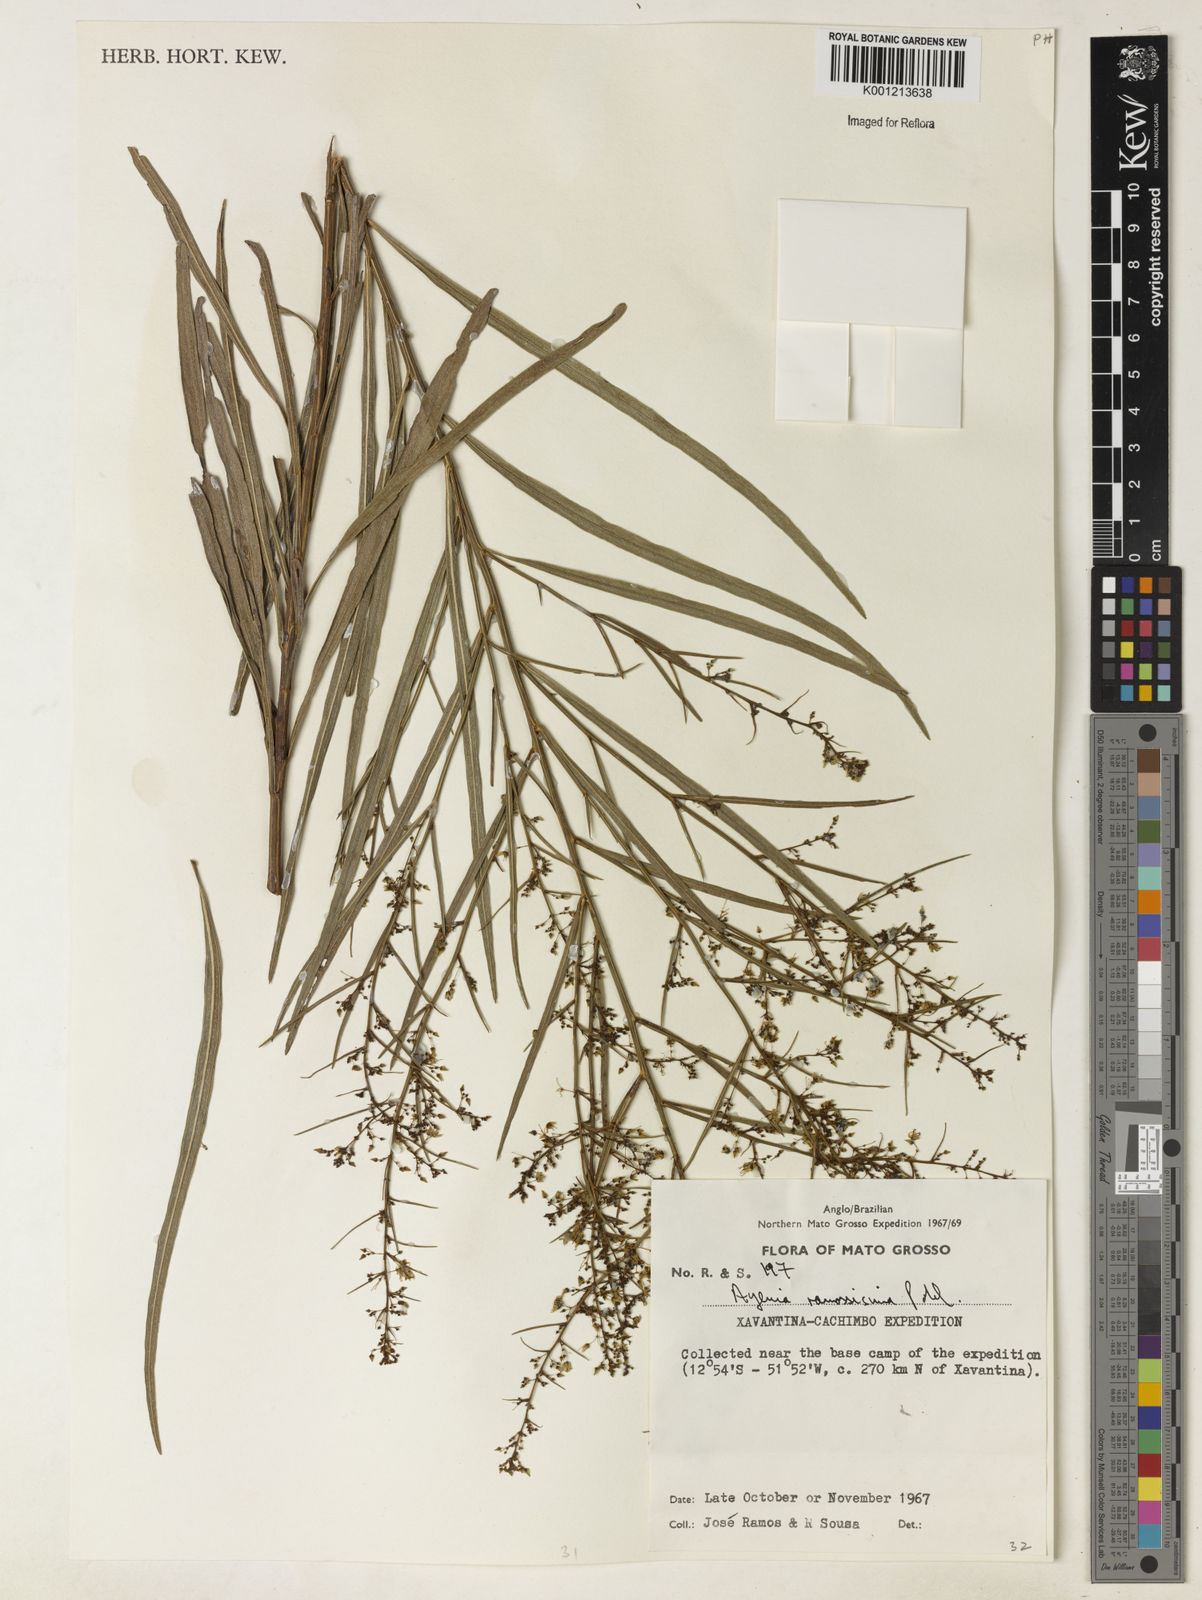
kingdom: Plantae
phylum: Tracheophyta
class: Magnoliopsida
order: Malvales
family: Malvaceae
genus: Byttneria
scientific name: Byttneria ramosissima
